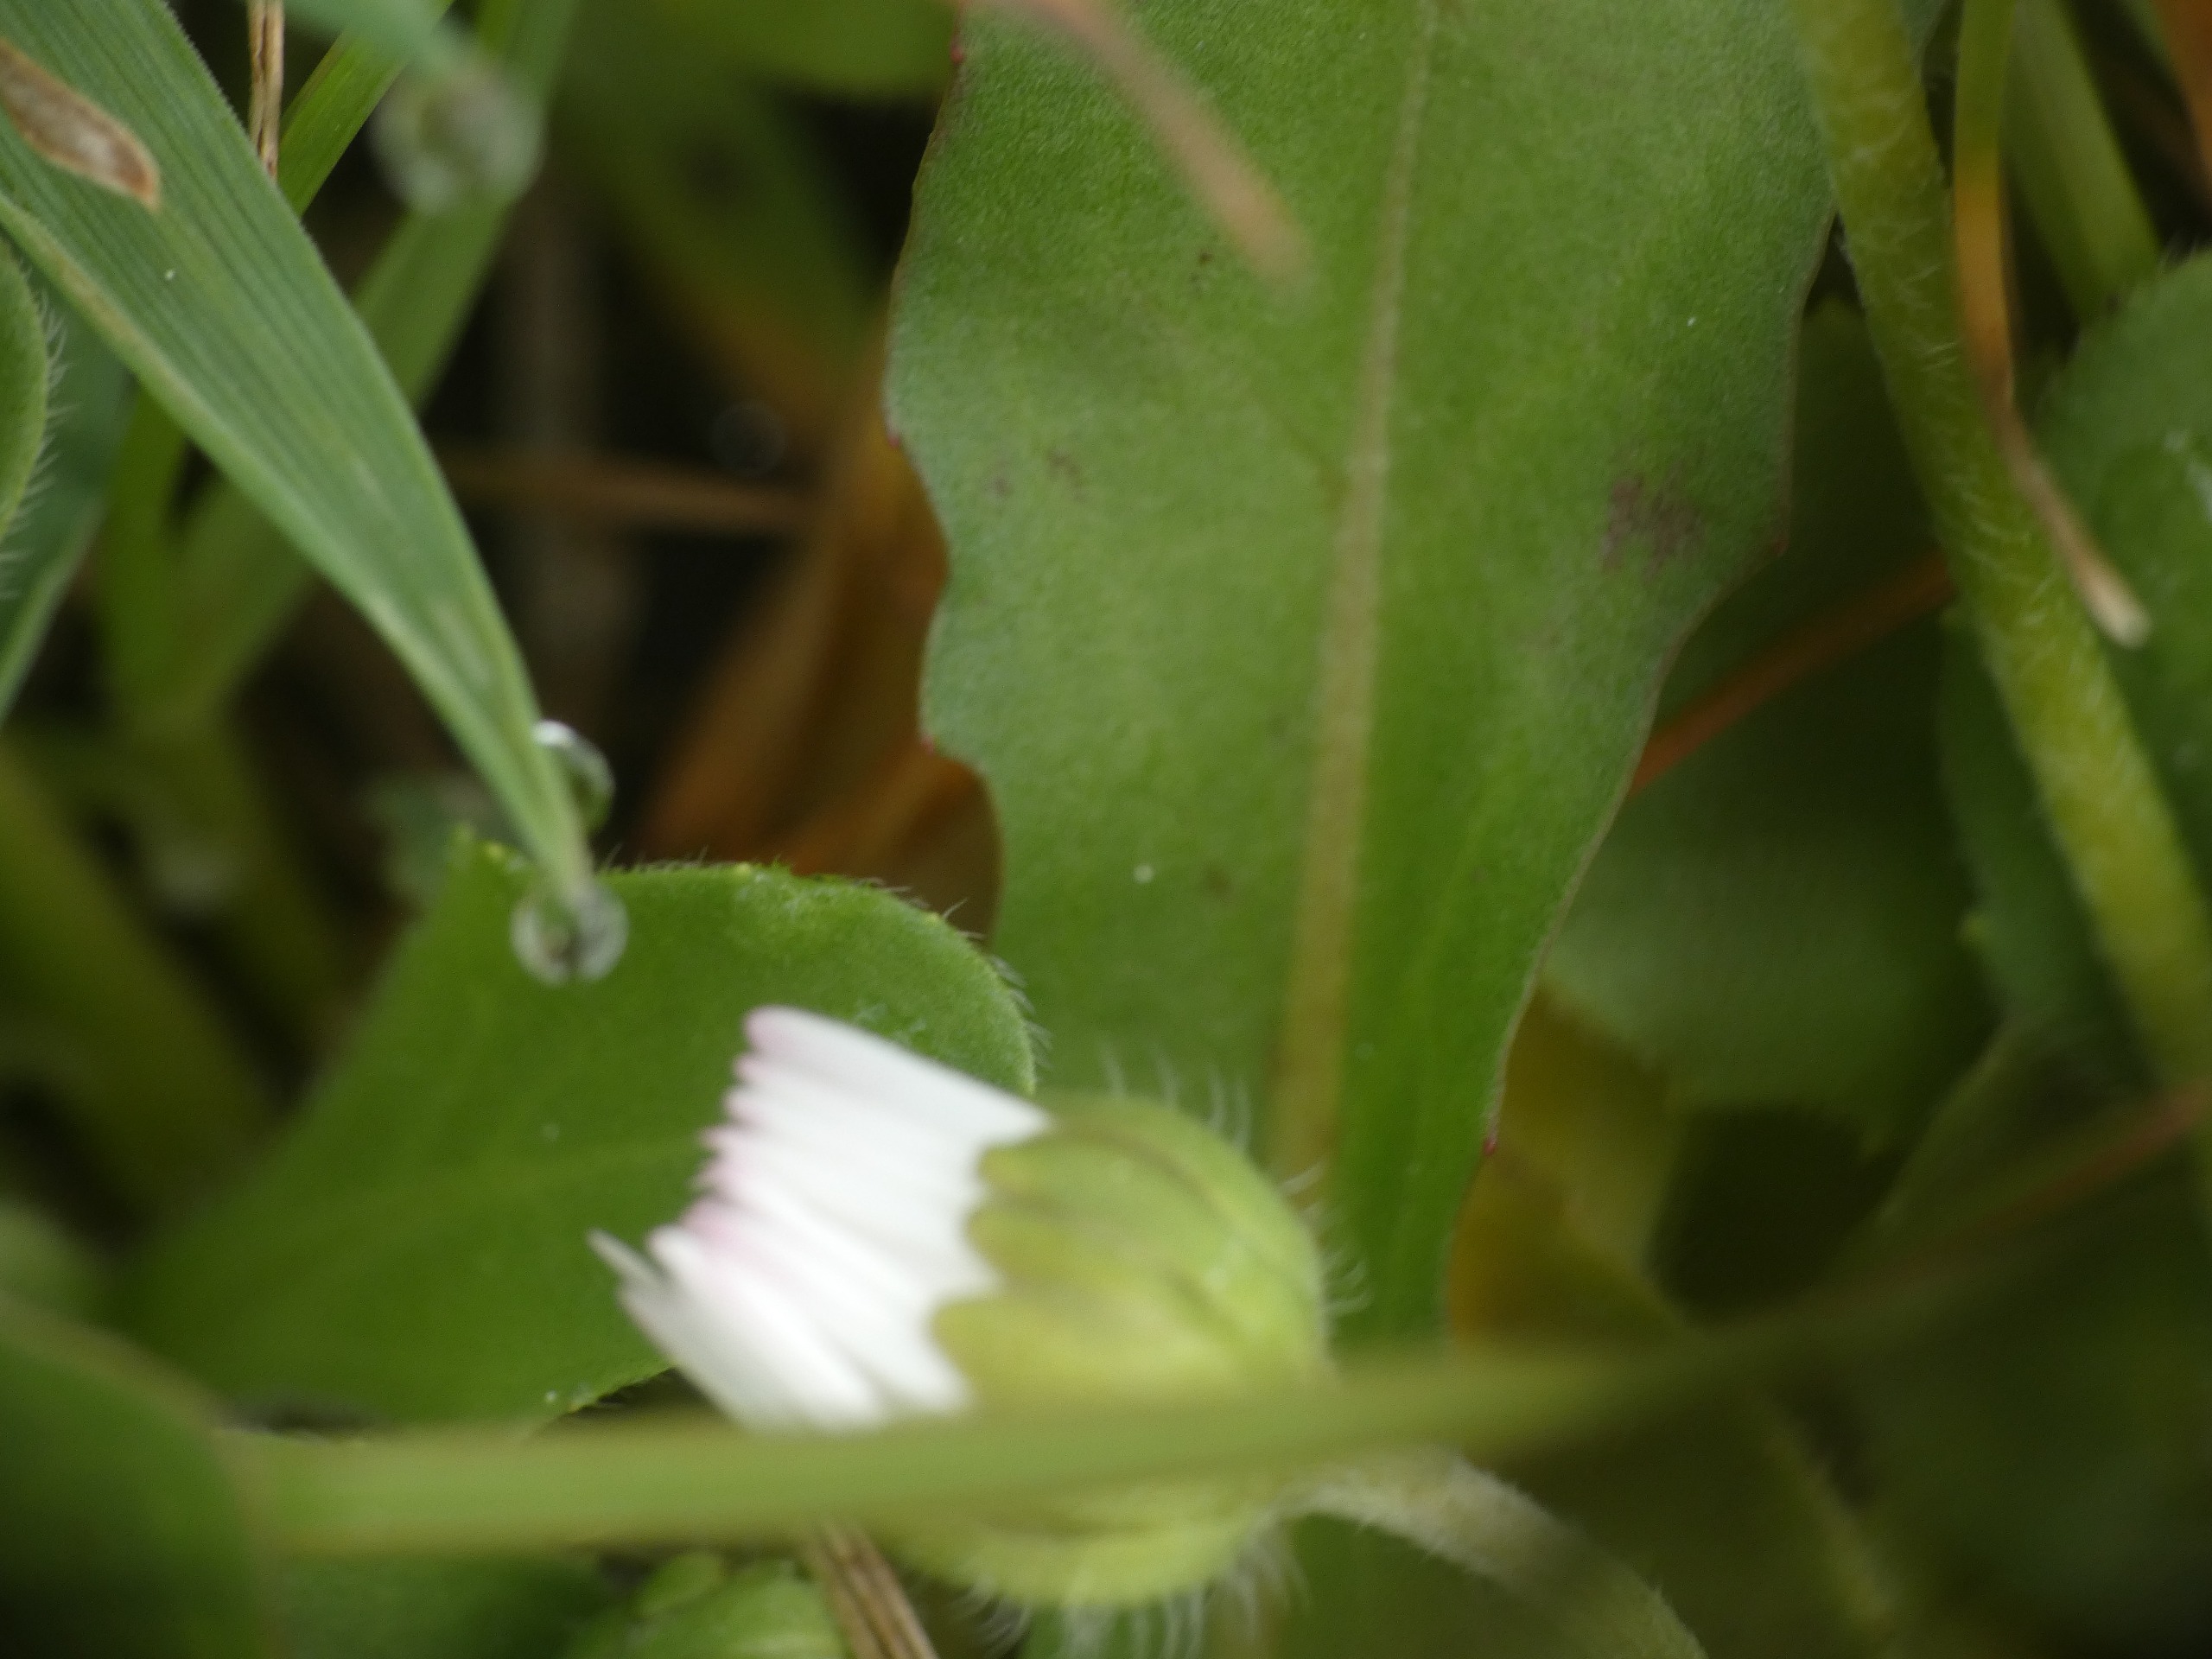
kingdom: Plantae
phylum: Tracheophyta
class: Magnoliopsida
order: Asterales
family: Asteraceae
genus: Bellis
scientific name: Bellis perennis
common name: Tusindfryd
